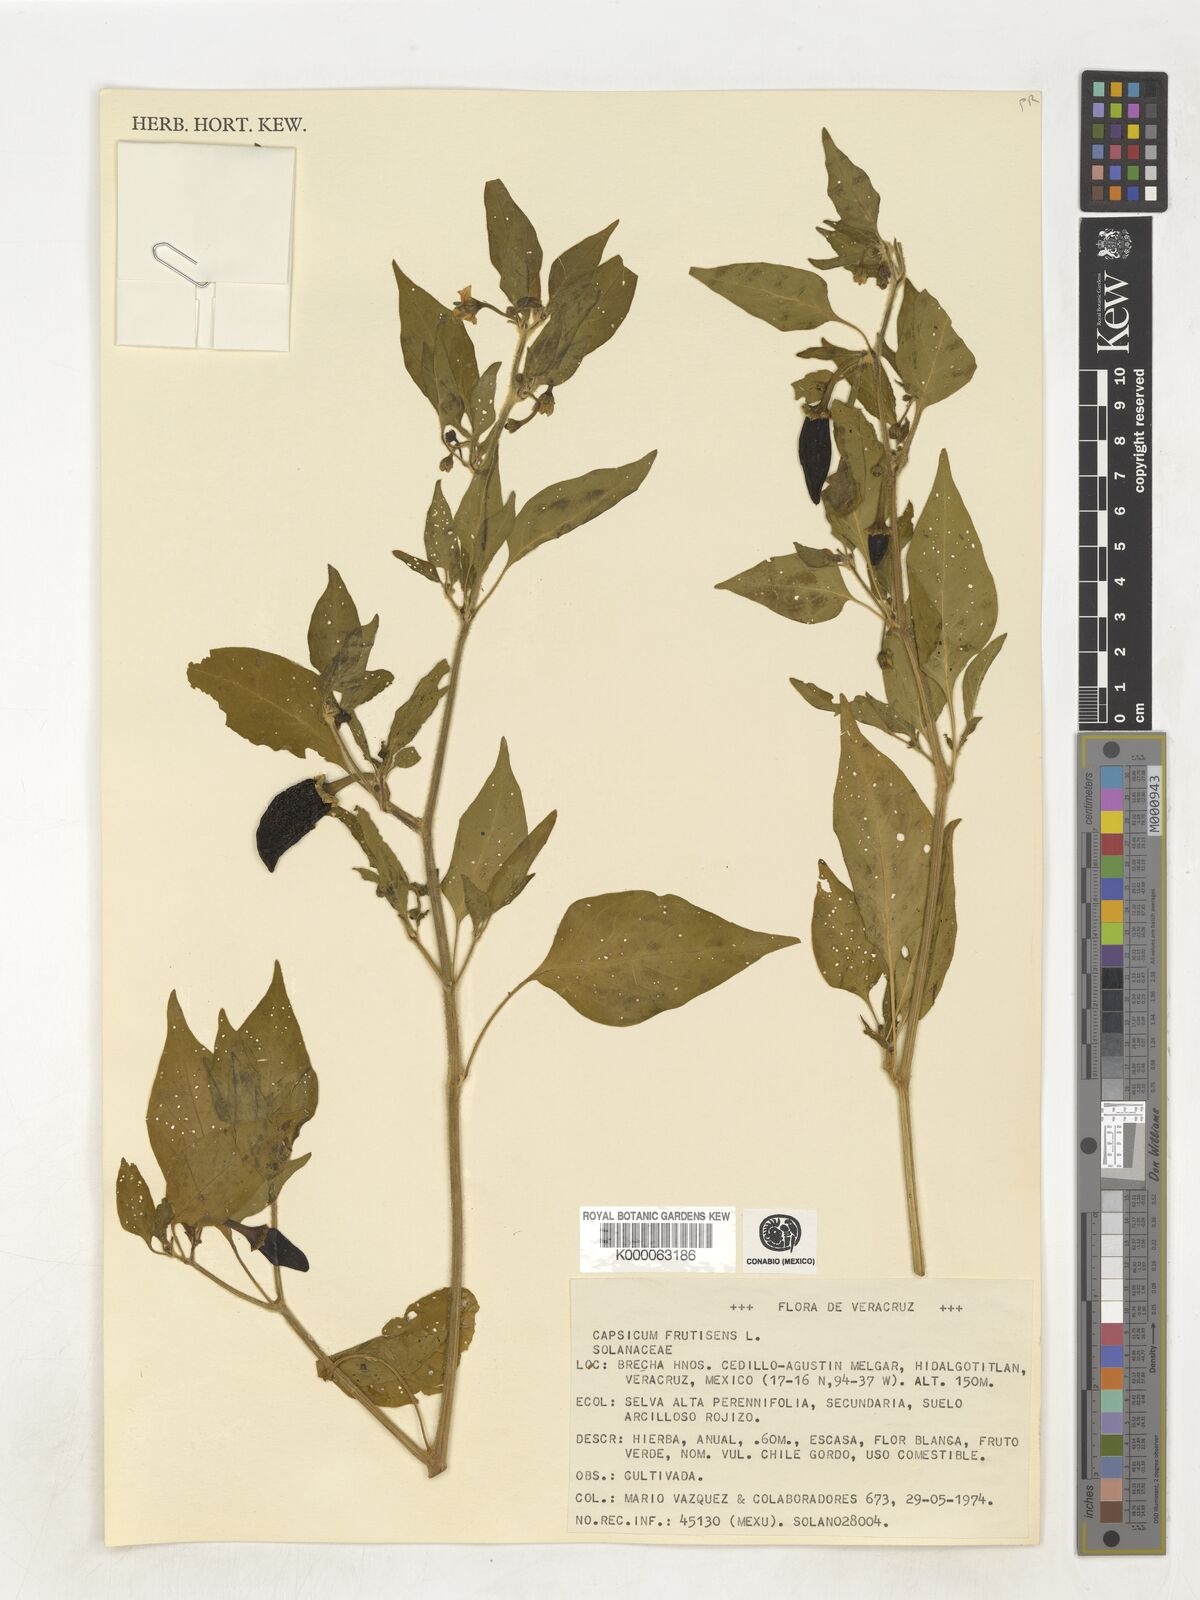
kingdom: Plantae
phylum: Tracheophyta
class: Magnoliopsida
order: Solanales
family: Solanaceae
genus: Capsicum
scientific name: Capsicum frutescens
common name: Bird pepper
